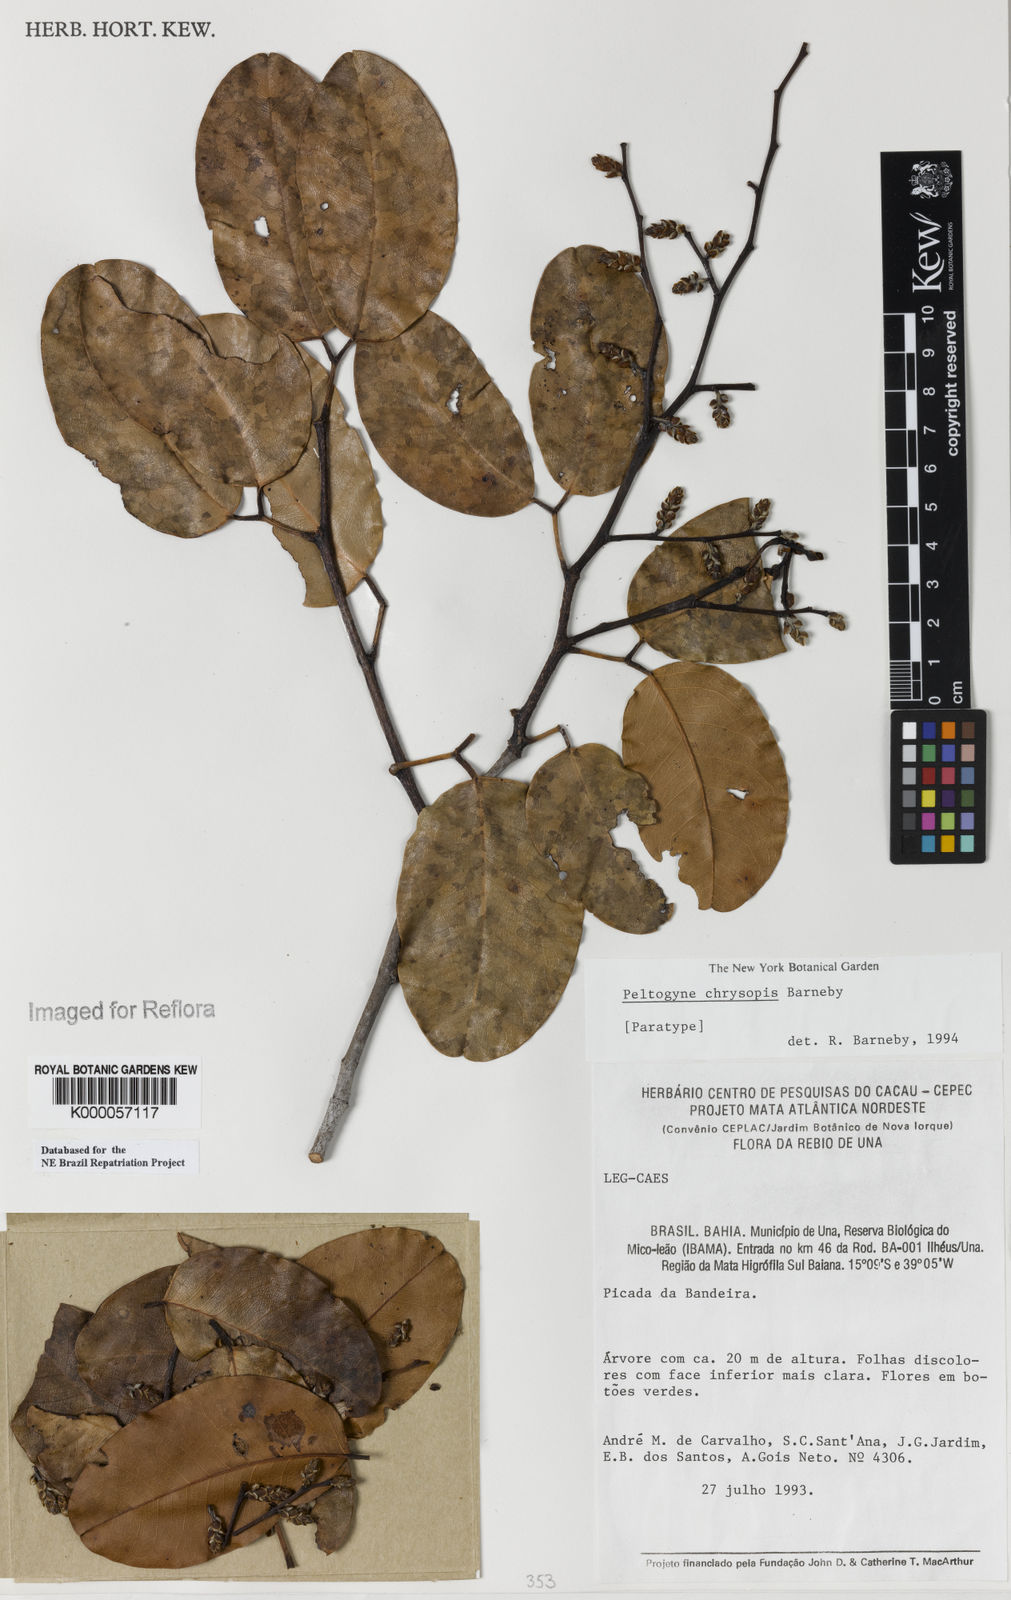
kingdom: Plantae
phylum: Tracheophyta
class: Magnoliopsida
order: Fabales
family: Fabaceae
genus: Peltogyne
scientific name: Peltogyne chrysopis
